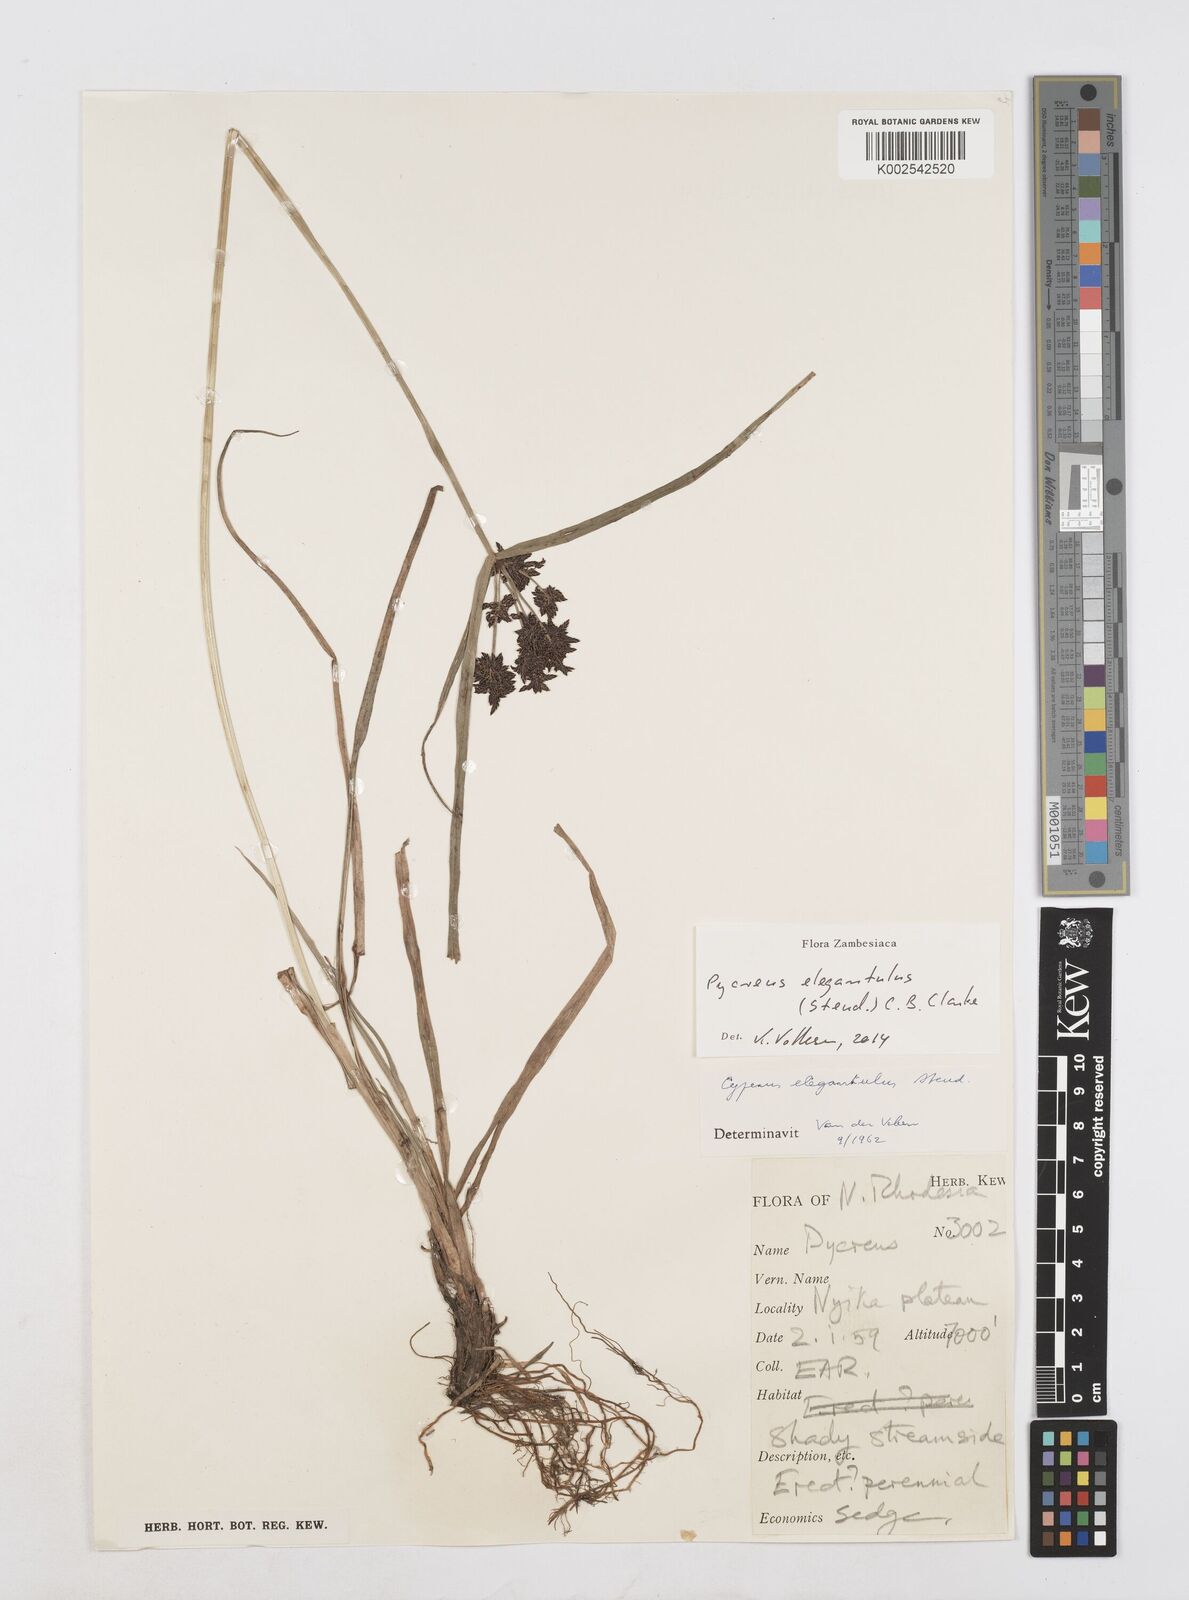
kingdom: Plantae
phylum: Tracheophyta
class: Liliopsida
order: Poales
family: Cyperaceae
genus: Cyperus
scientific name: Cyperus elegantulus
